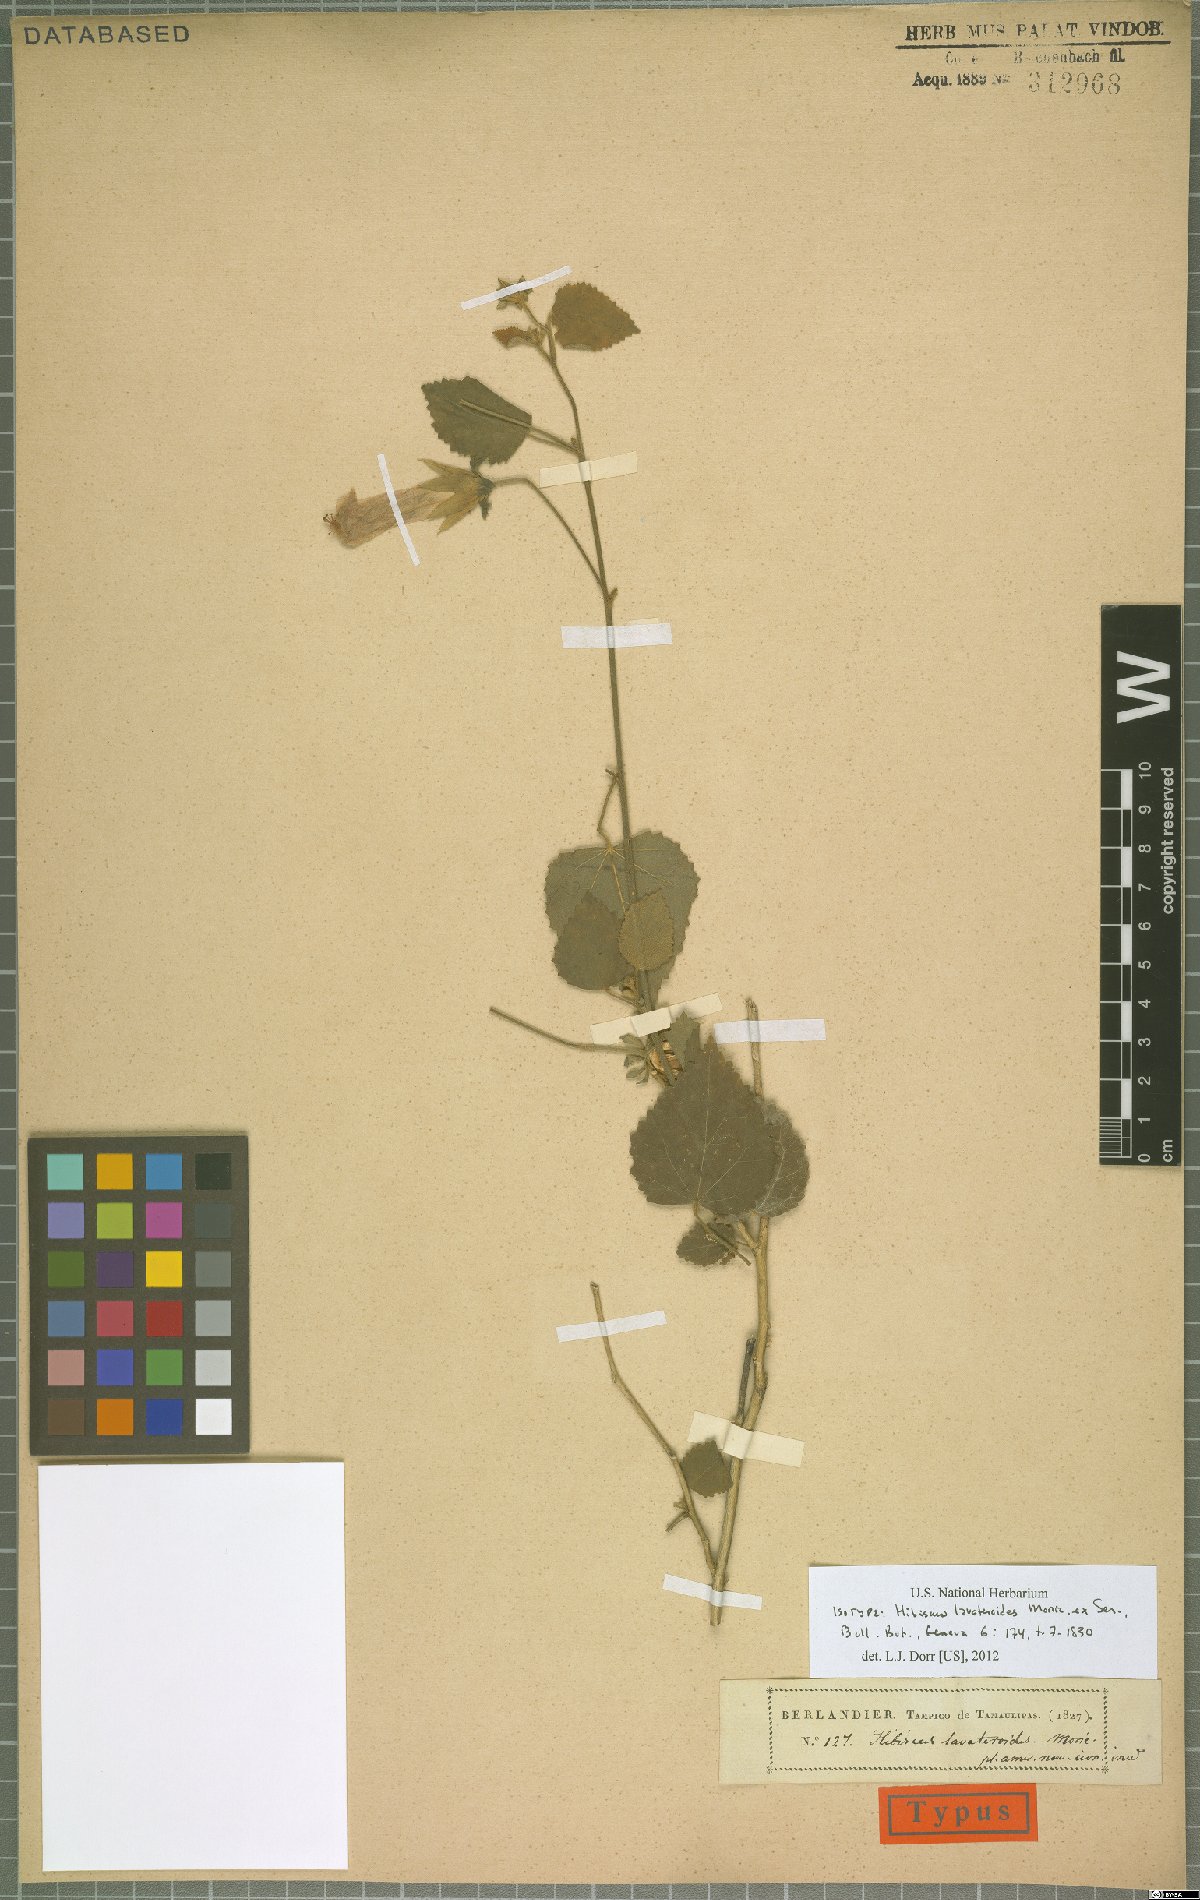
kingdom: Plantae
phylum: Tracheophyta
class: Magnoliopsida
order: Malvales
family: Malvaceae
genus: Hibiscus
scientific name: Hibiscus lavateroides
